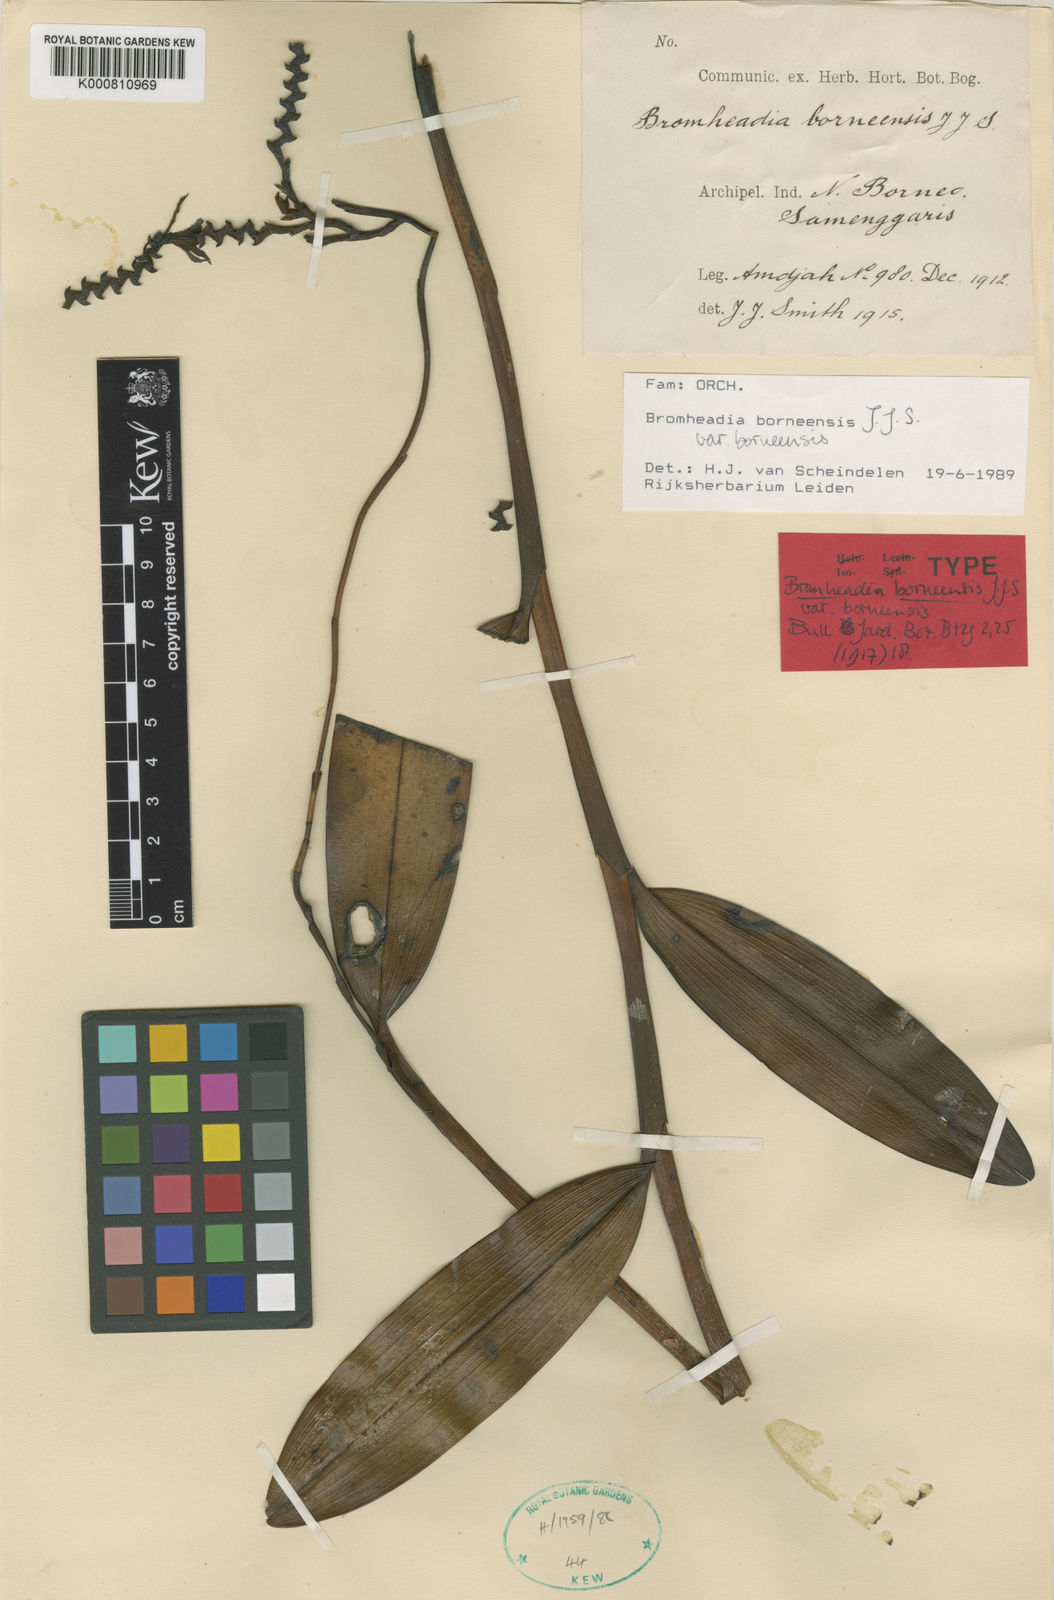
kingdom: Plantae
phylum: Tracheophyta
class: Liliopsida
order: Asparagales
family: Orchidaceae
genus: Bromheadia
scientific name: Bromheadia borneensis
